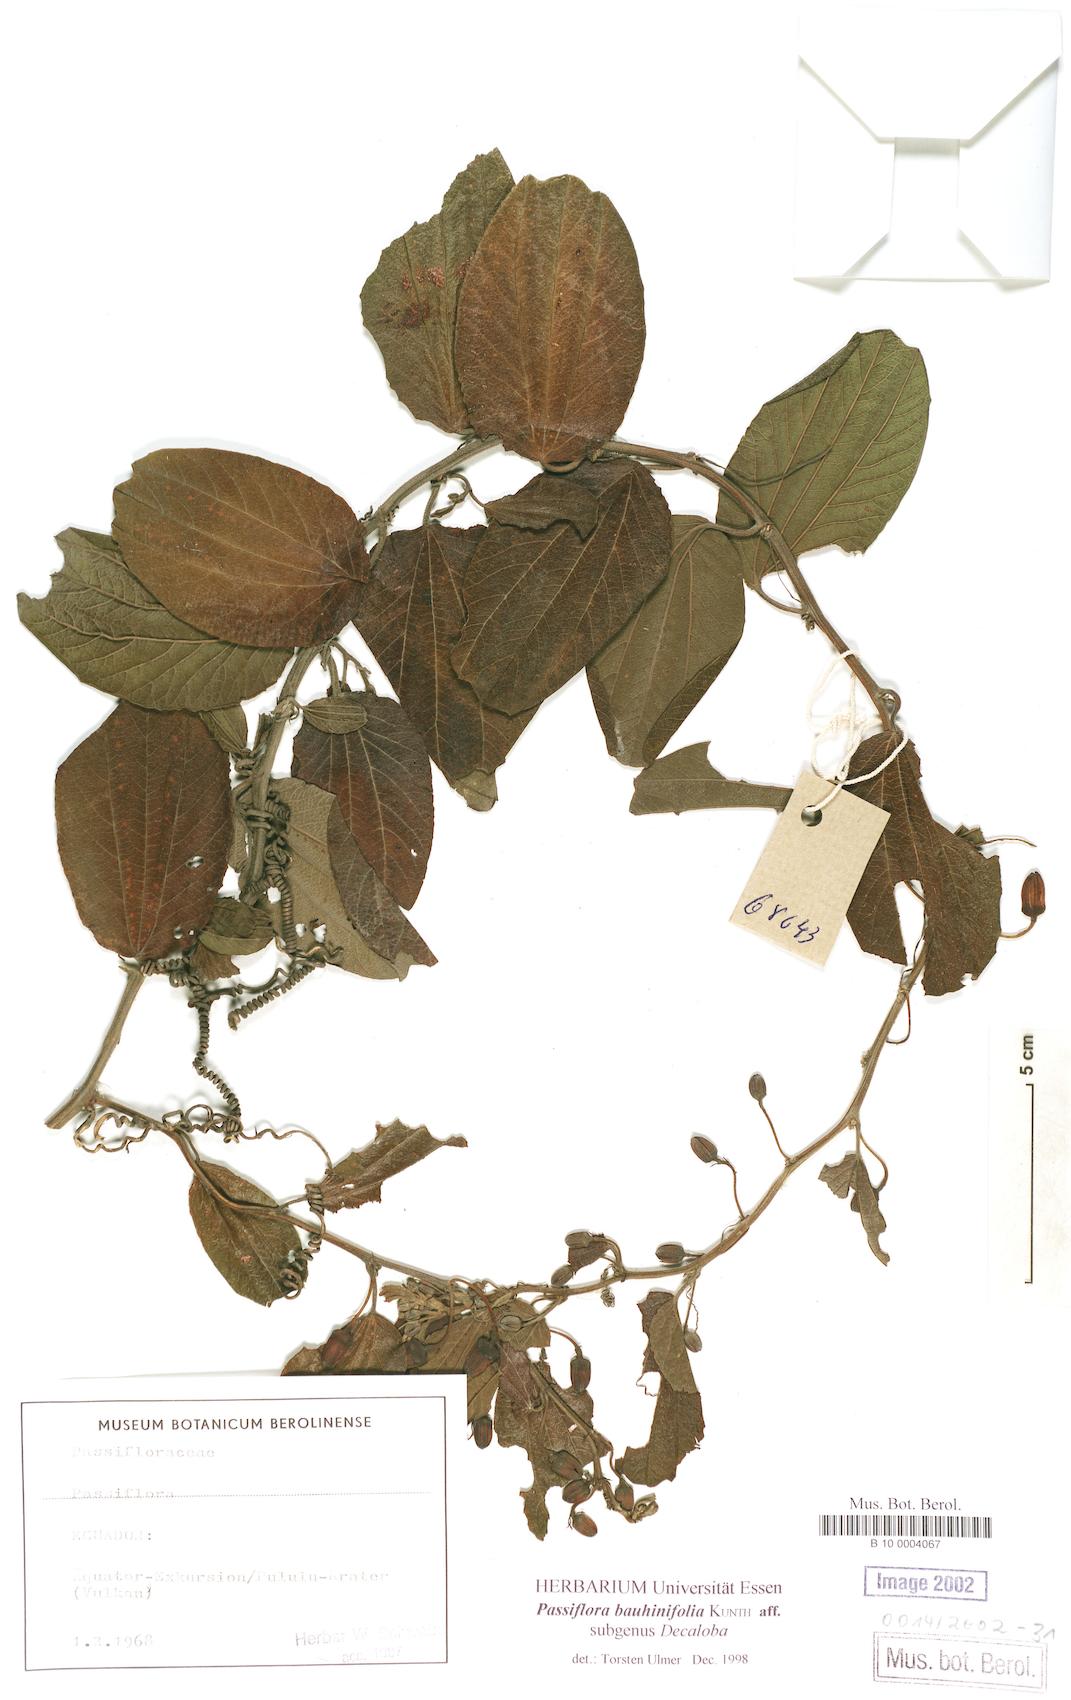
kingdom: Plantae
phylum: Tracheophyta
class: Magnoliopsida
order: Malpighiales
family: Passifloraceae
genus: Passiflora
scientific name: Passiflora alnifolia
